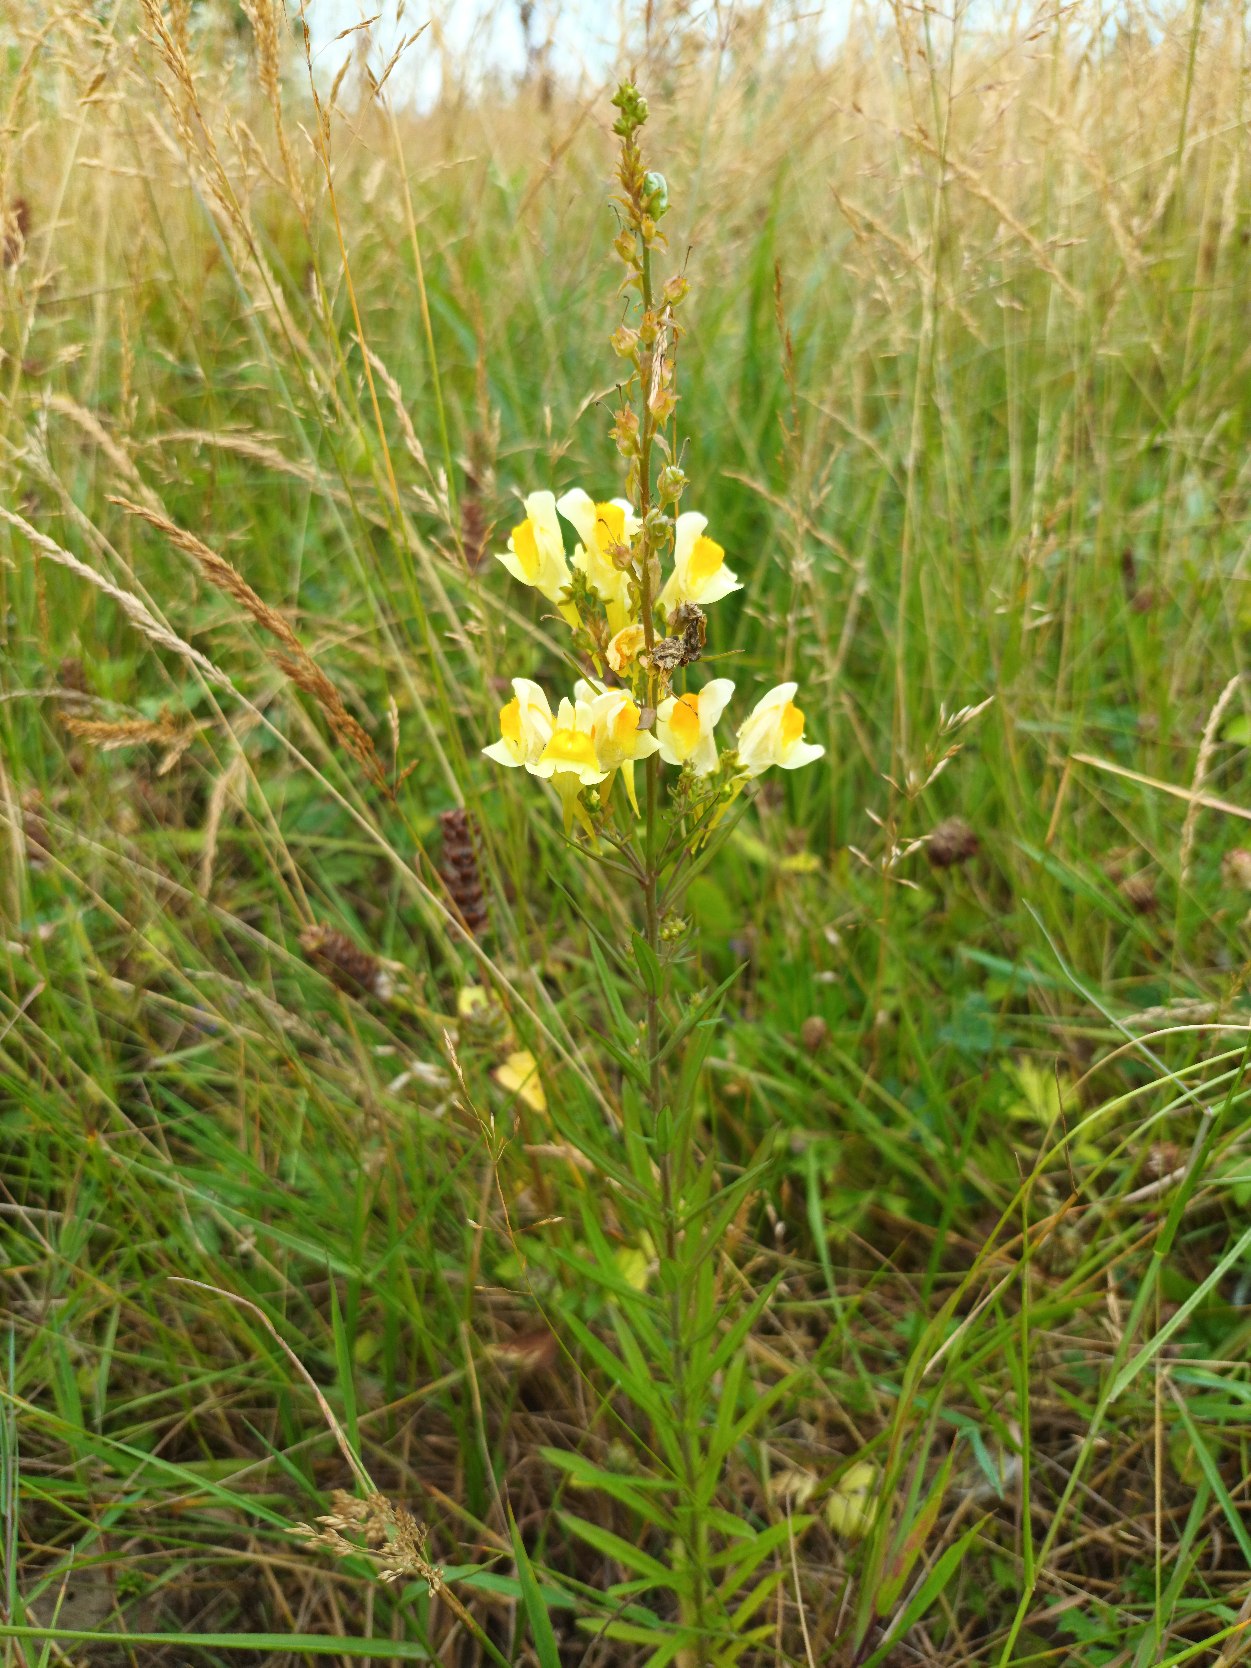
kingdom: Plantae
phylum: Tracheophyta
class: Magnoliopsida
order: Lamiales
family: Plantaginaceae
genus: Linaria
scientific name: Linaria vulgaris
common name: Almindelig torskemund
